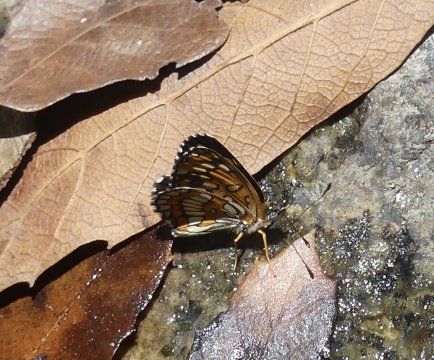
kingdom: Animalia
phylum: Arthropoda
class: Insecta
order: Lepidoptera
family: Nymphalidae
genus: Thessalia
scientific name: Thessalia theona
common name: Theona Checkerspot
